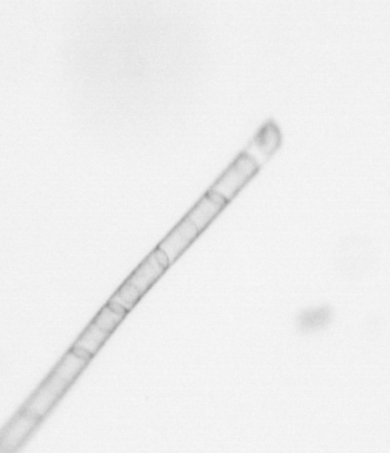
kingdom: Chromista
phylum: Ochrophyta
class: Bacillariophyceae
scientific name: Bacillariophyceae
